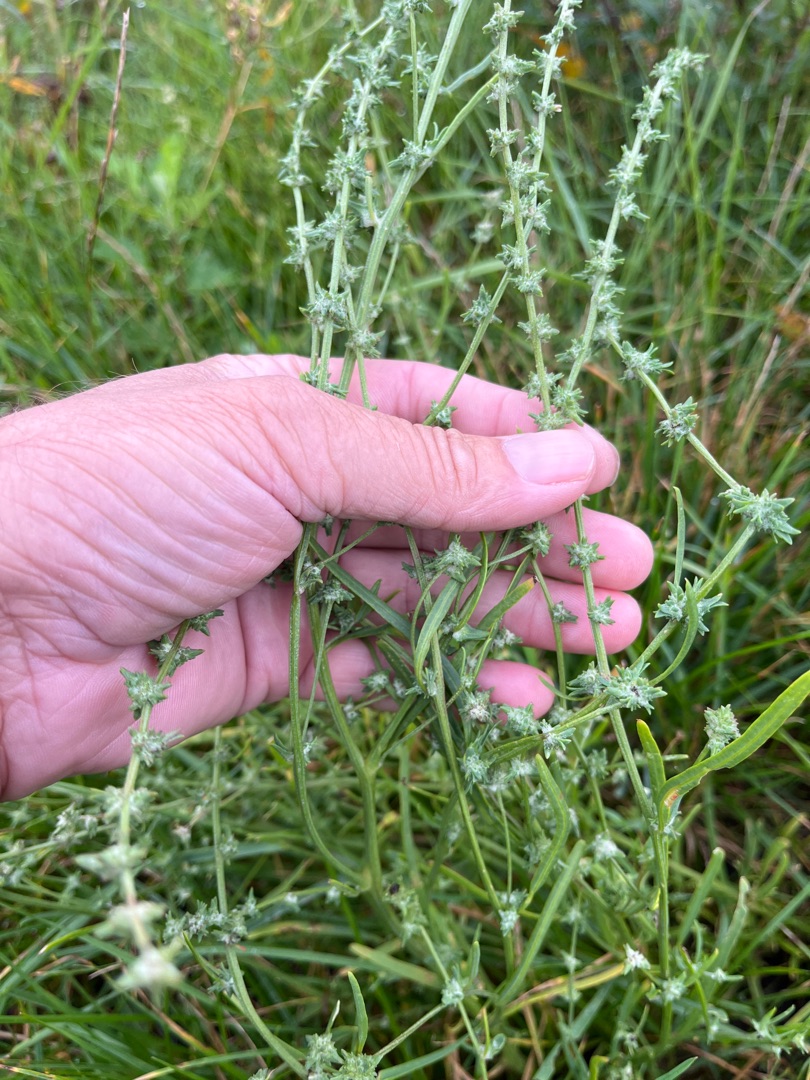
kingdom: Plantae
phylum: Tracheophyta
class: Magnoliopsida
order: Caryophyllales
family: Amaranthaceae
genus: Atriplex
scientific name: Atriplex littoralis
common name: Strand-mælde
